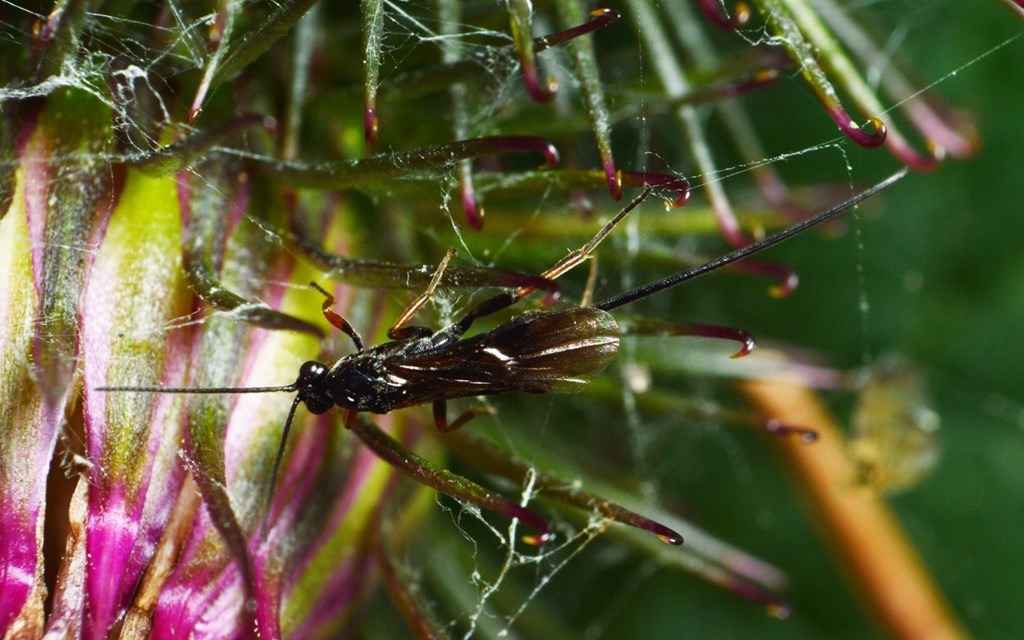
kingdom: Animalia
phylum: Arthropoda
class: Insecta
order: Hymenoptera
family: Braconidae
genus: Agathis
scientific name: Agathis varipes
